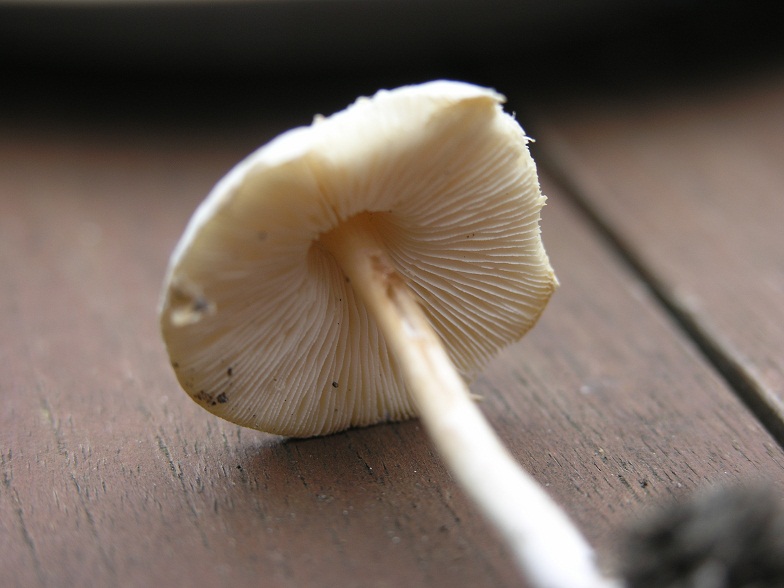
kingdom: Fungi
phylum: Basidiomycota
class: Agaricomycetes
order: Agaricales
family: Agaricaceae
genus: Lepiota
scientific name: Lepiota cristata
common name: stinkende parasolhat
